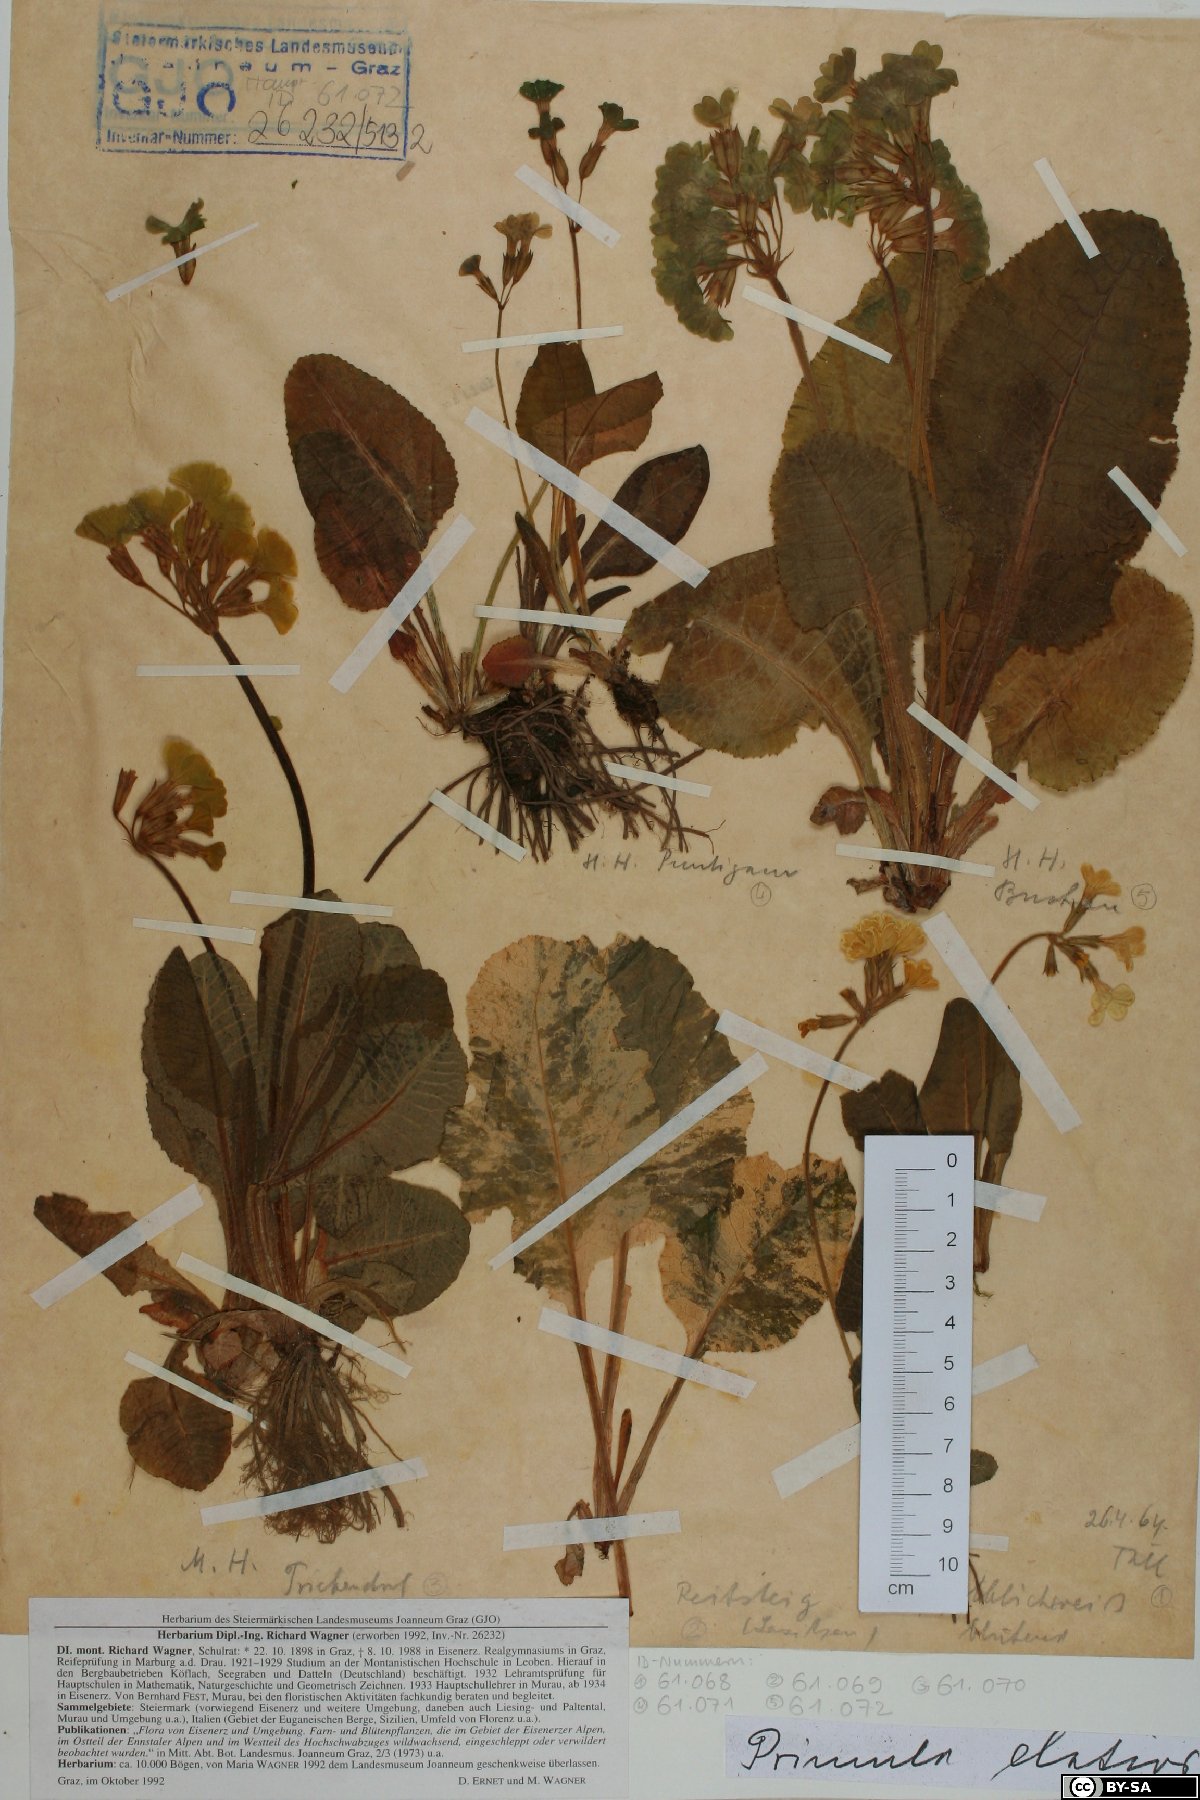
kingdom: Plantae
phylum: Tracheophyta
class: Magnoliopsida
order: Ericales
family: Primulaceae
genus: Primula
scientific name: Primula elatior
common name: Oxlip
